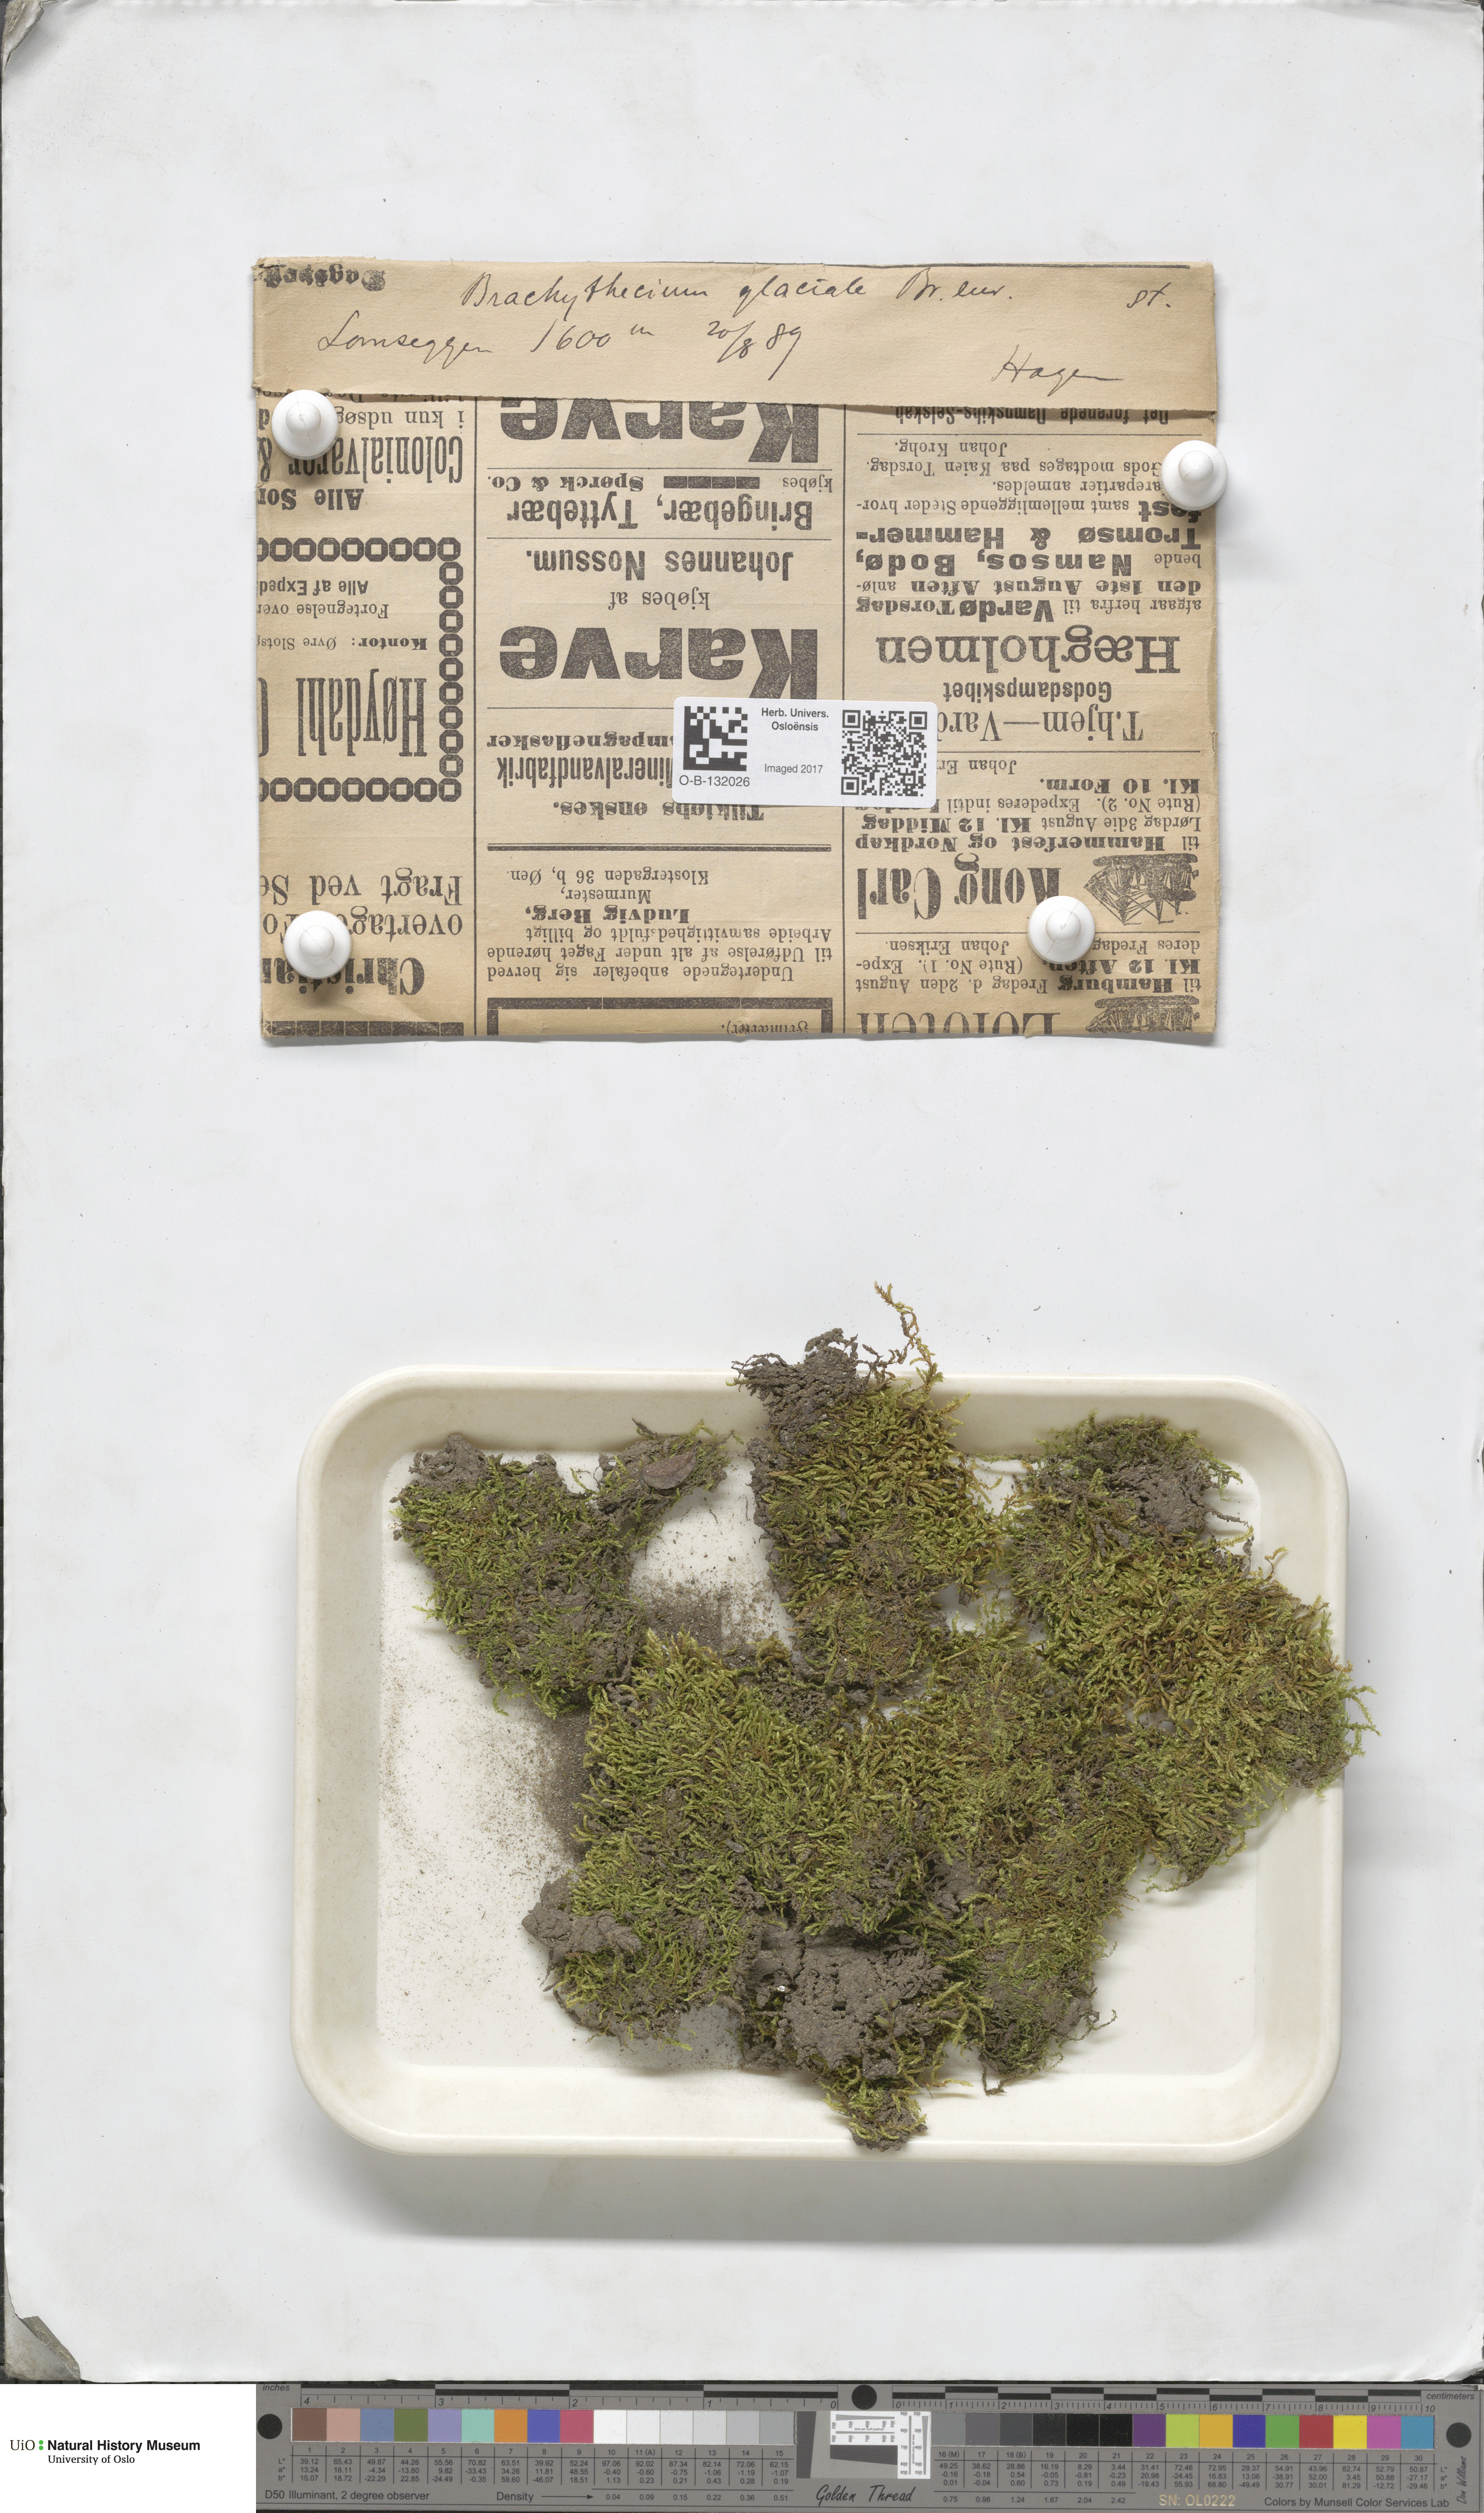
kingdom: Plantae
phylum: Bryophyta
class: Bryopsida
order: Hypnales
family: Brachytheciaceae
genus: Brachythecium
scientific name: Brachythecium erythrorrhizon
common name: Taiga ragged moss
